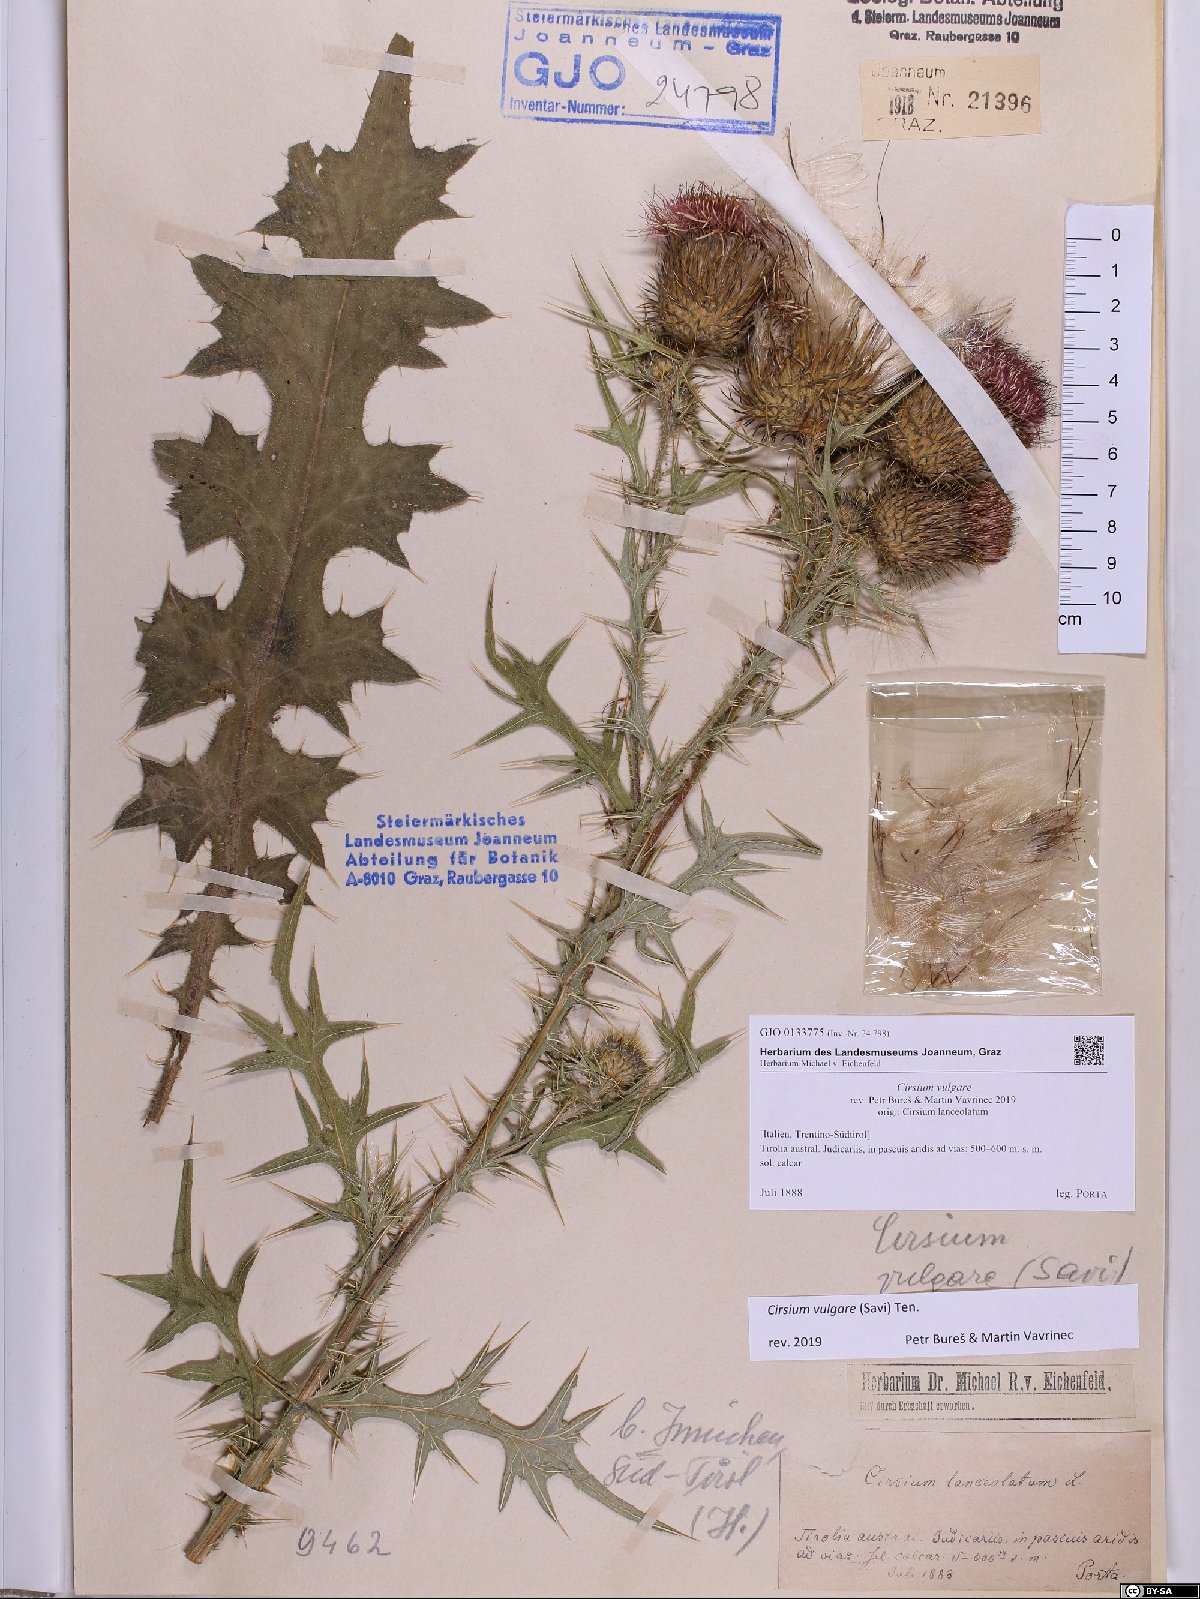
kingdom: Plantae
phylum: Tracheophyta
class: Magnoliopsida
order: Asterales
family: Asteraceae
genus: Cirsium
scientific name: Cirsium vulgare
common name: Bull thistle
